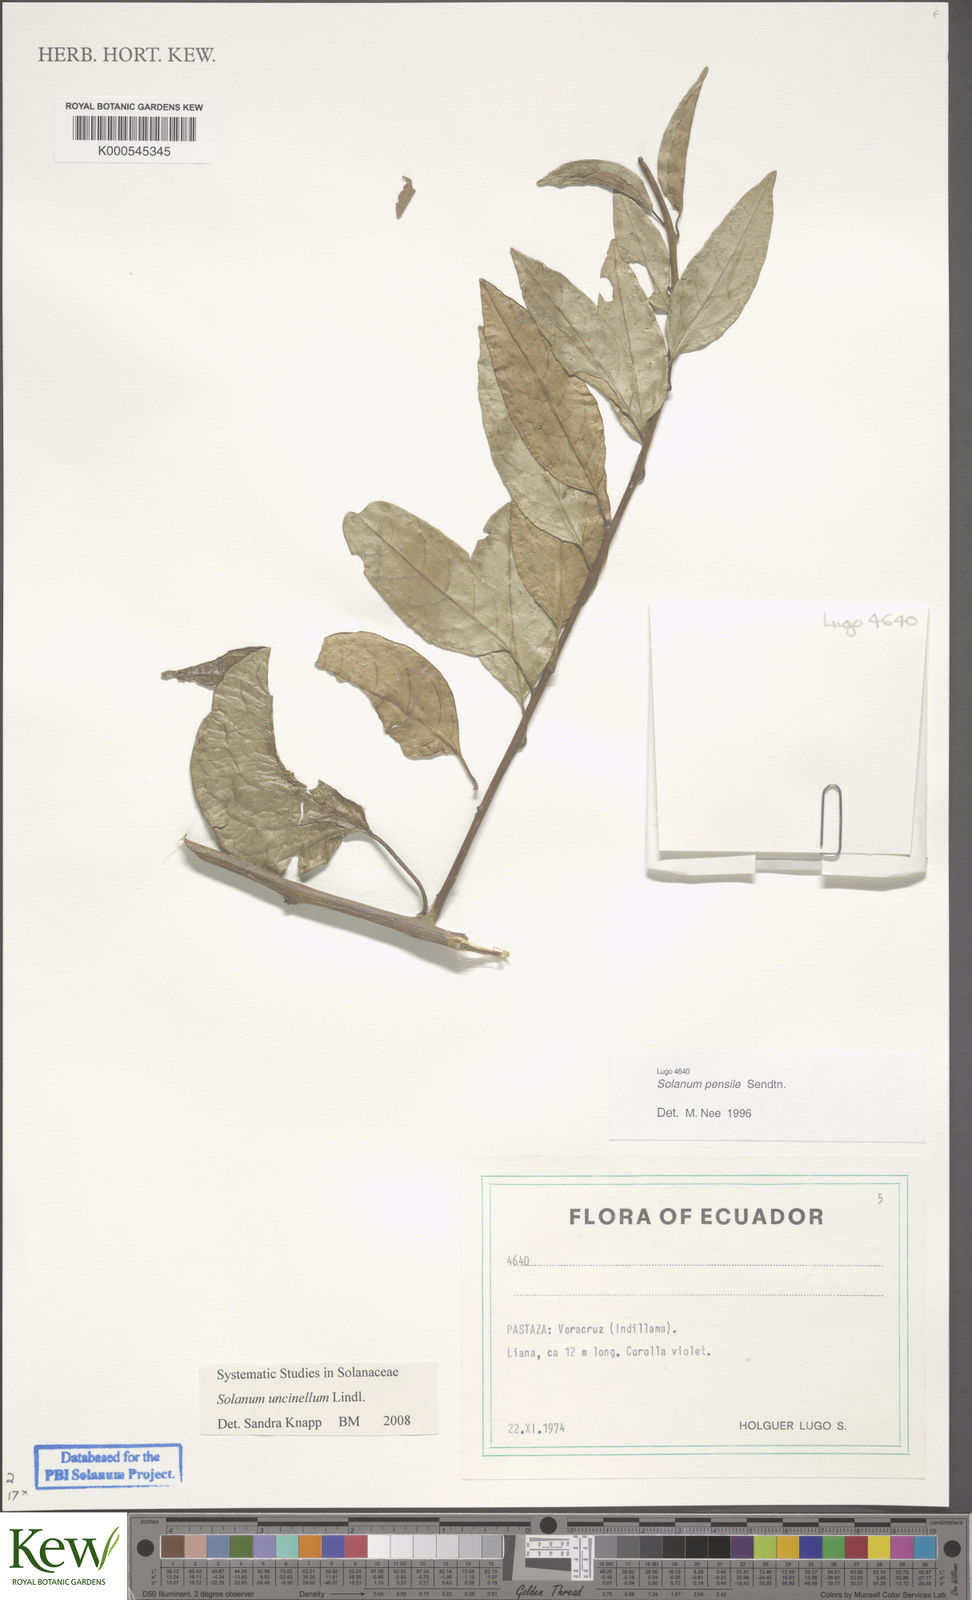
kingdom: Plantae
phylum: Tracheophyta
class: Magnoliopsida
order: Solanales
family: Solanaceae
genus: Solanum
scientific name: Solanum uncinellum
